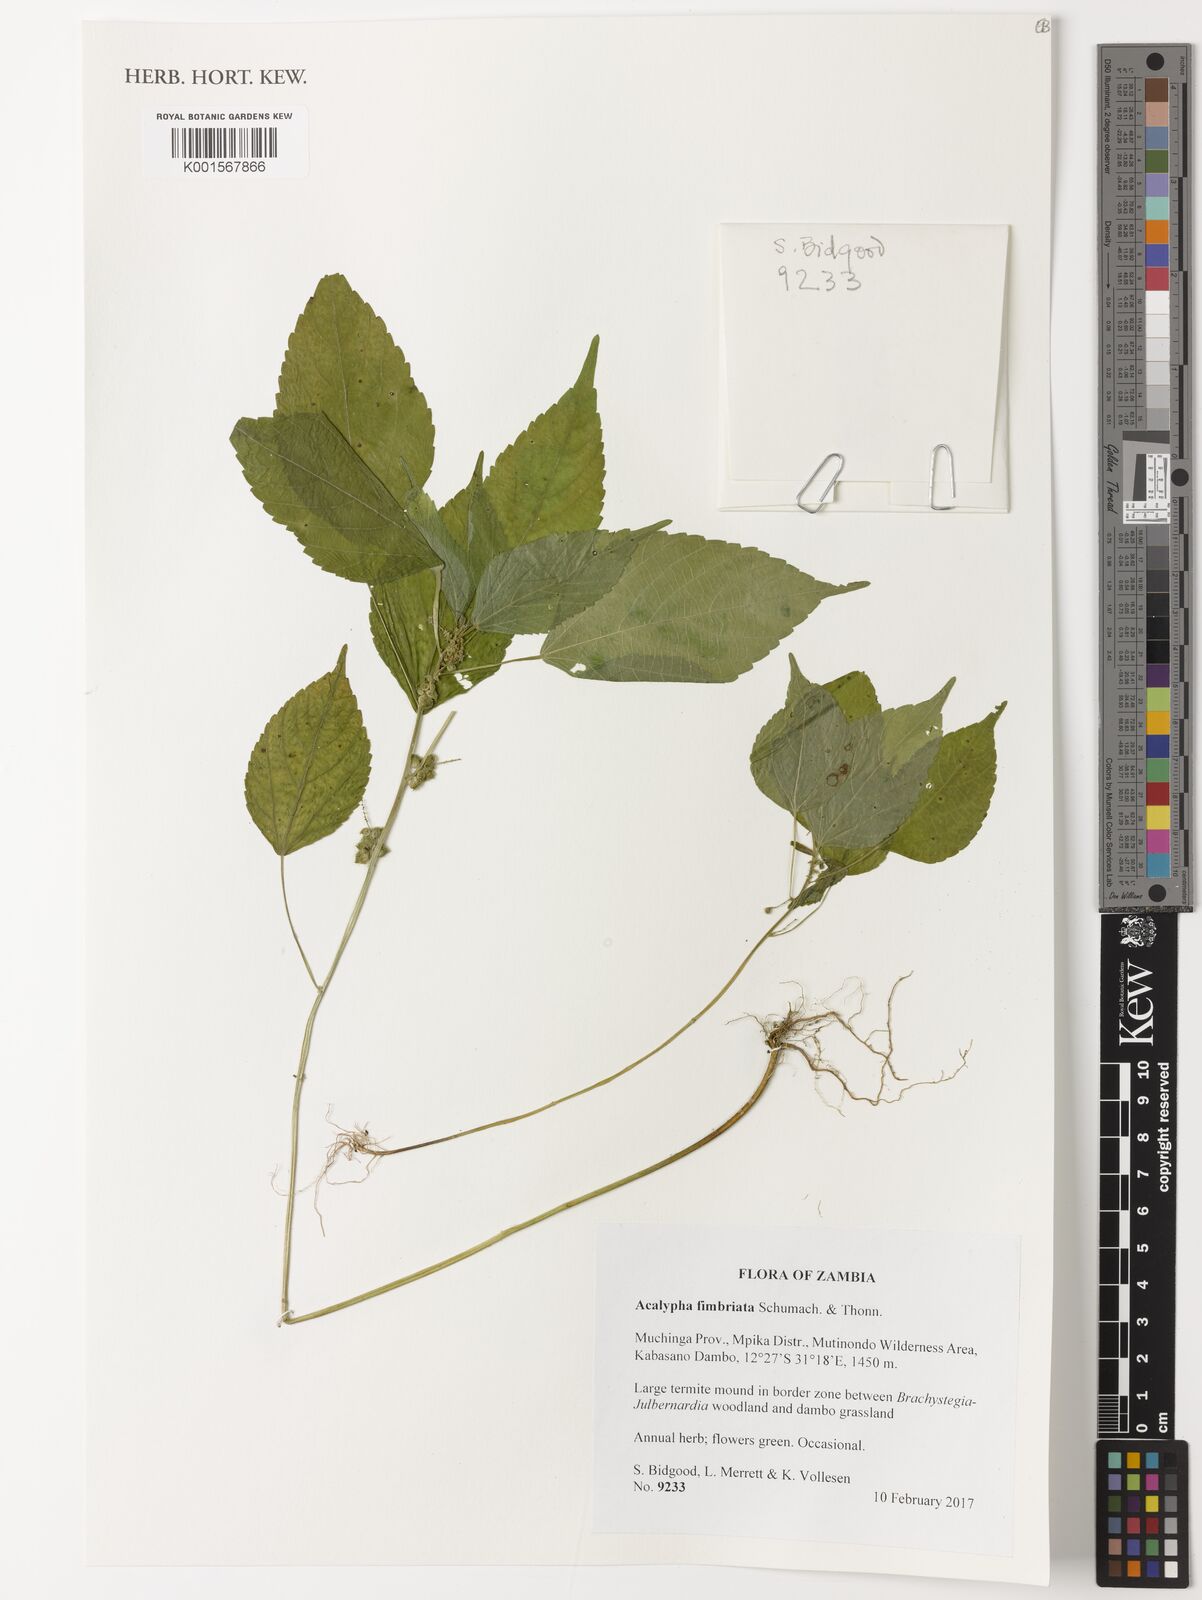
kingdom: Plantae
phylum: Tracheophyta
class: Magnoliopsida
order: Malpighiales
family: Euphorbiaceae
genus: Acalypha
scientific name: Acalypha fimbriata
